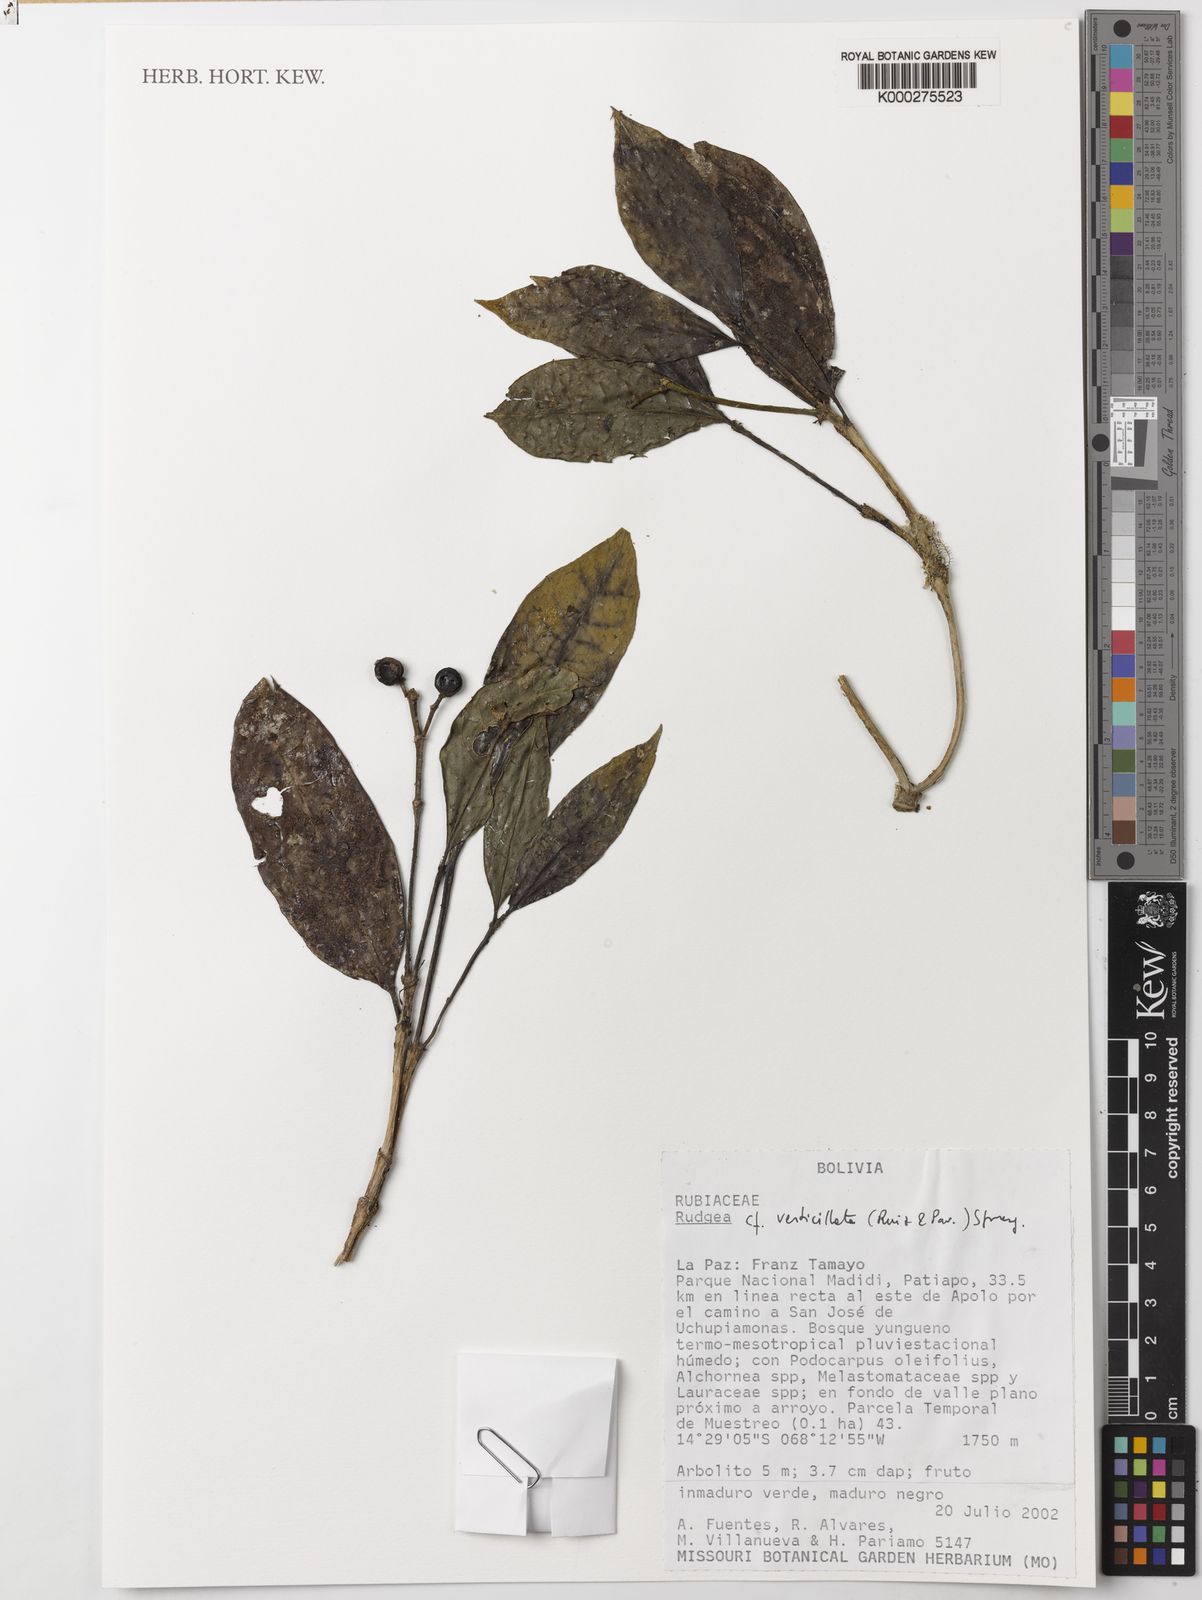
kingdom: Plantae
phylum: Tracheophyta
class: Magnoliopsida
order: Gentianales
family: Rubiaceae
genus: Rudgea
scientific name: Rudgea verticillata
